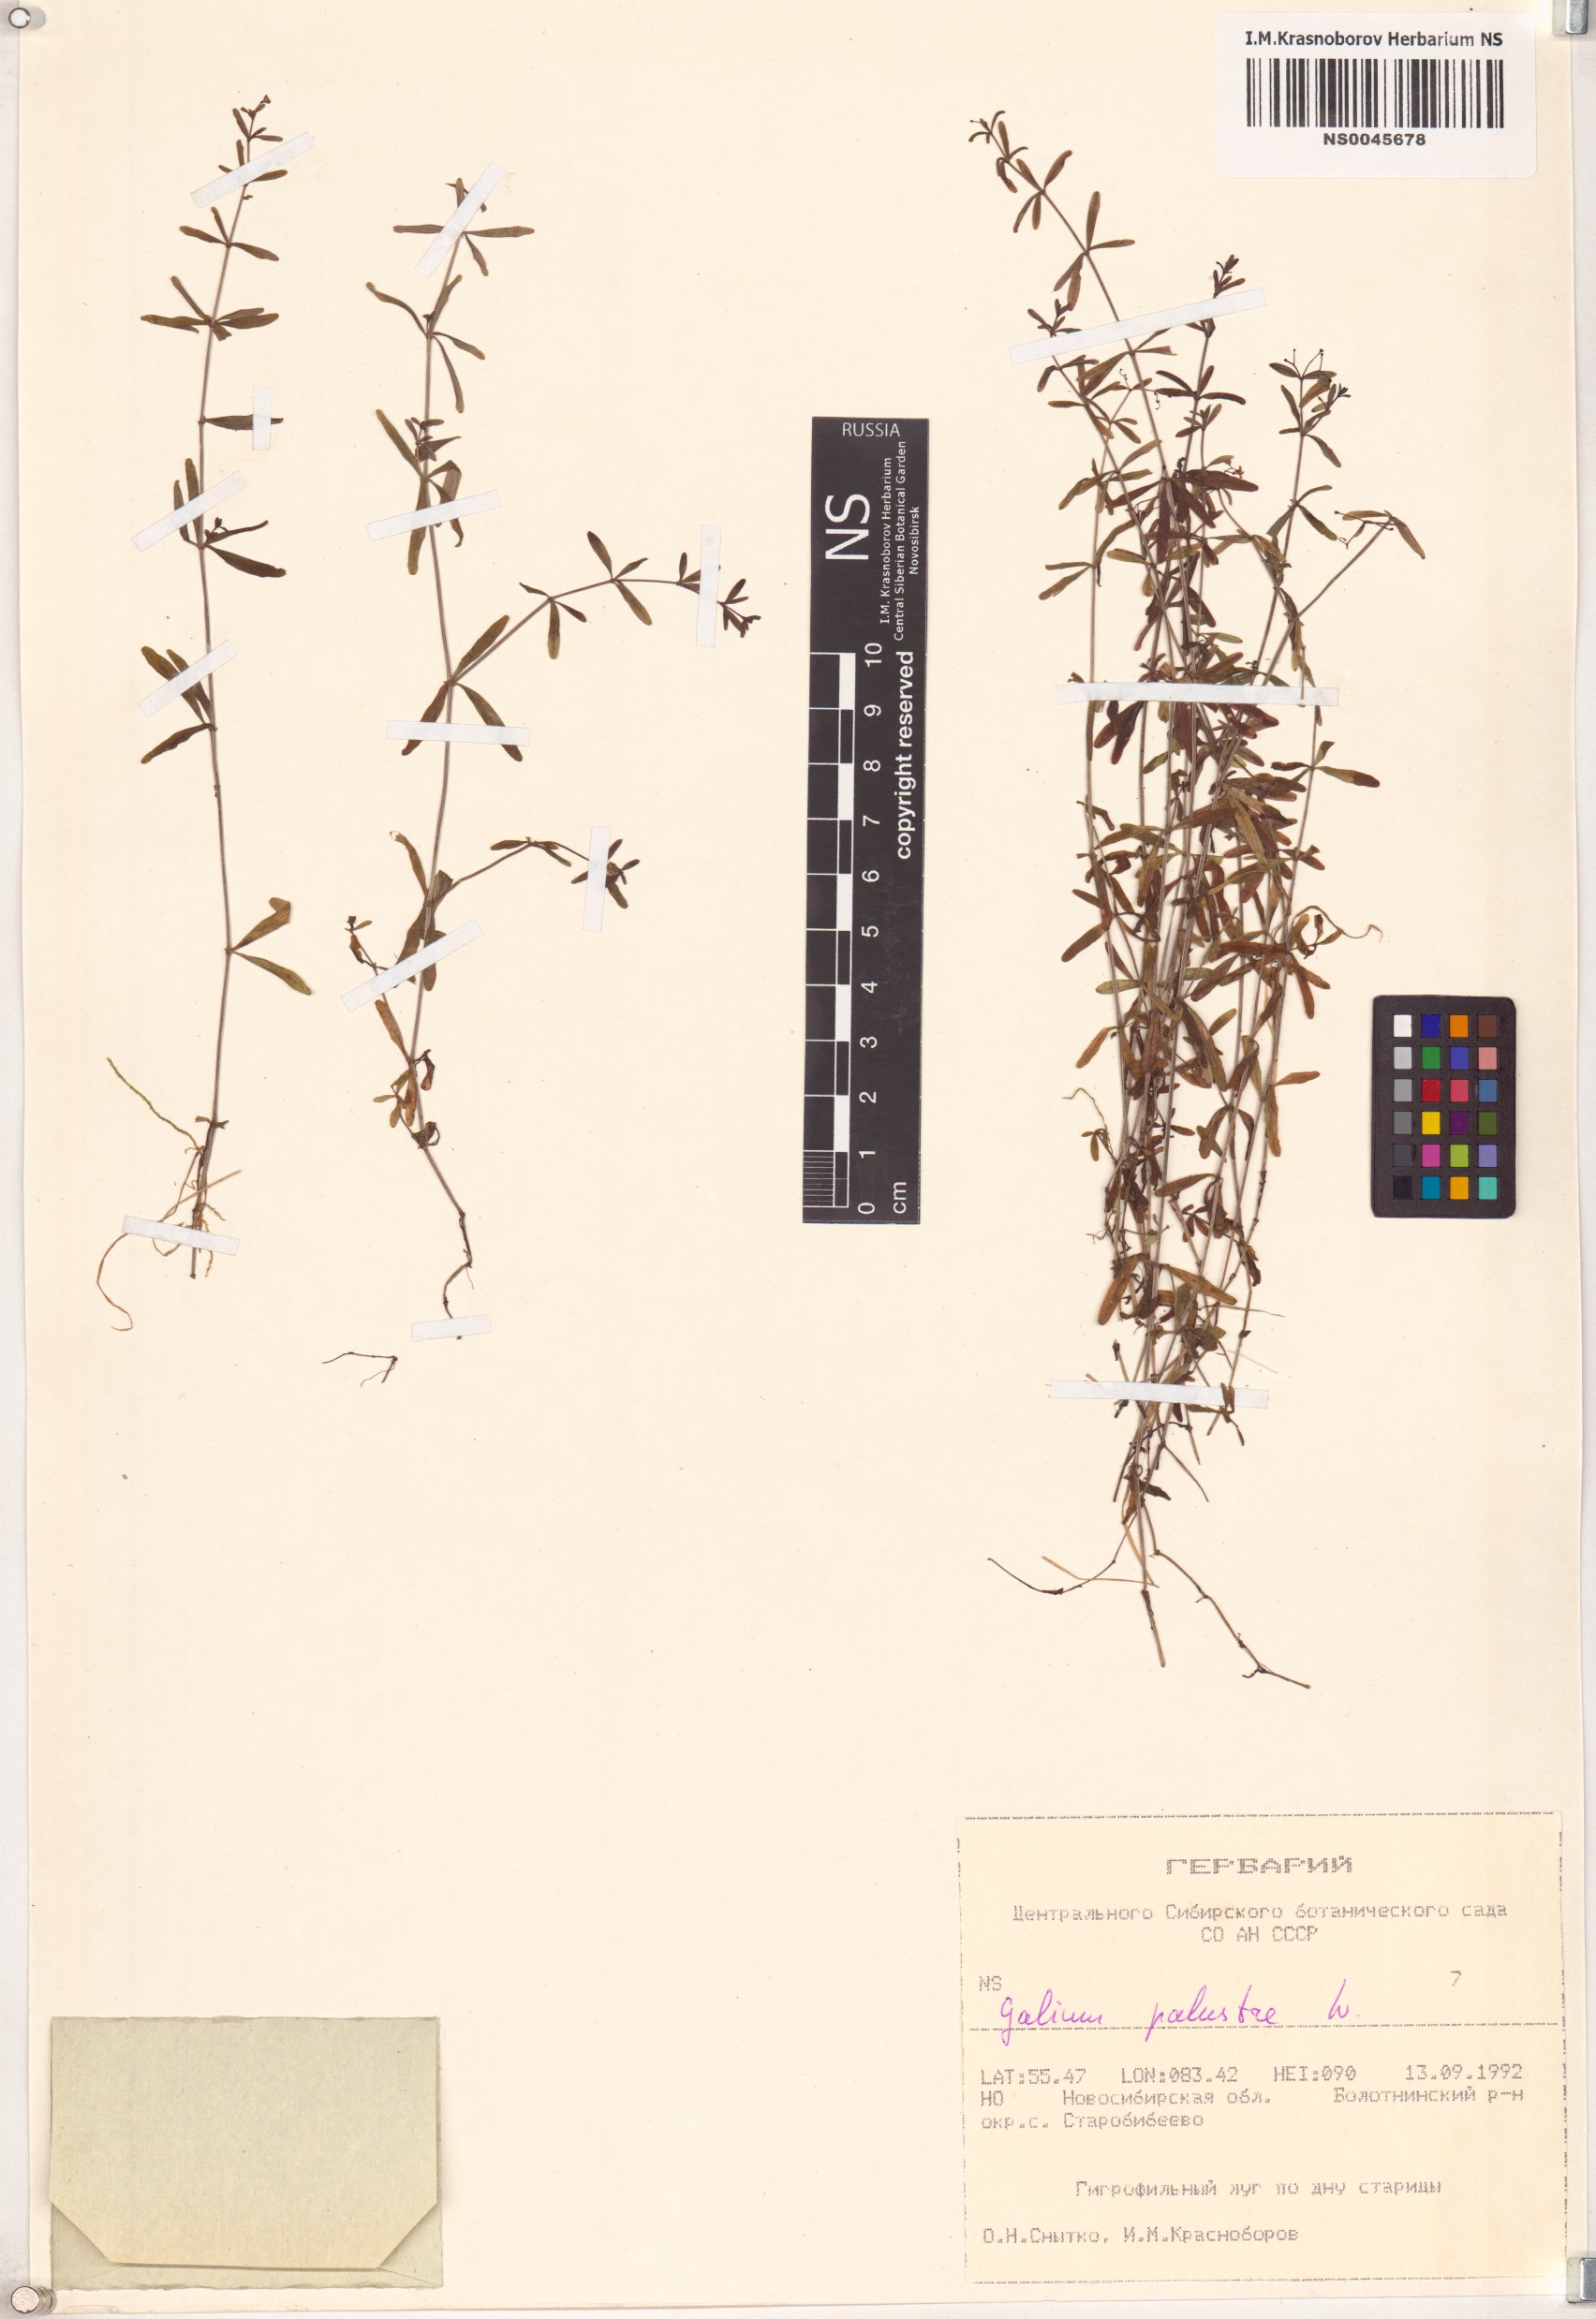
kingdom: Plantae
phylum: Tracheophyta
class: Magnoliopsida
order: Gentianales
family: Rubiaceae
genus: Galium
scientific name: Galium palustre
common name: Common marsh-bedstraw
